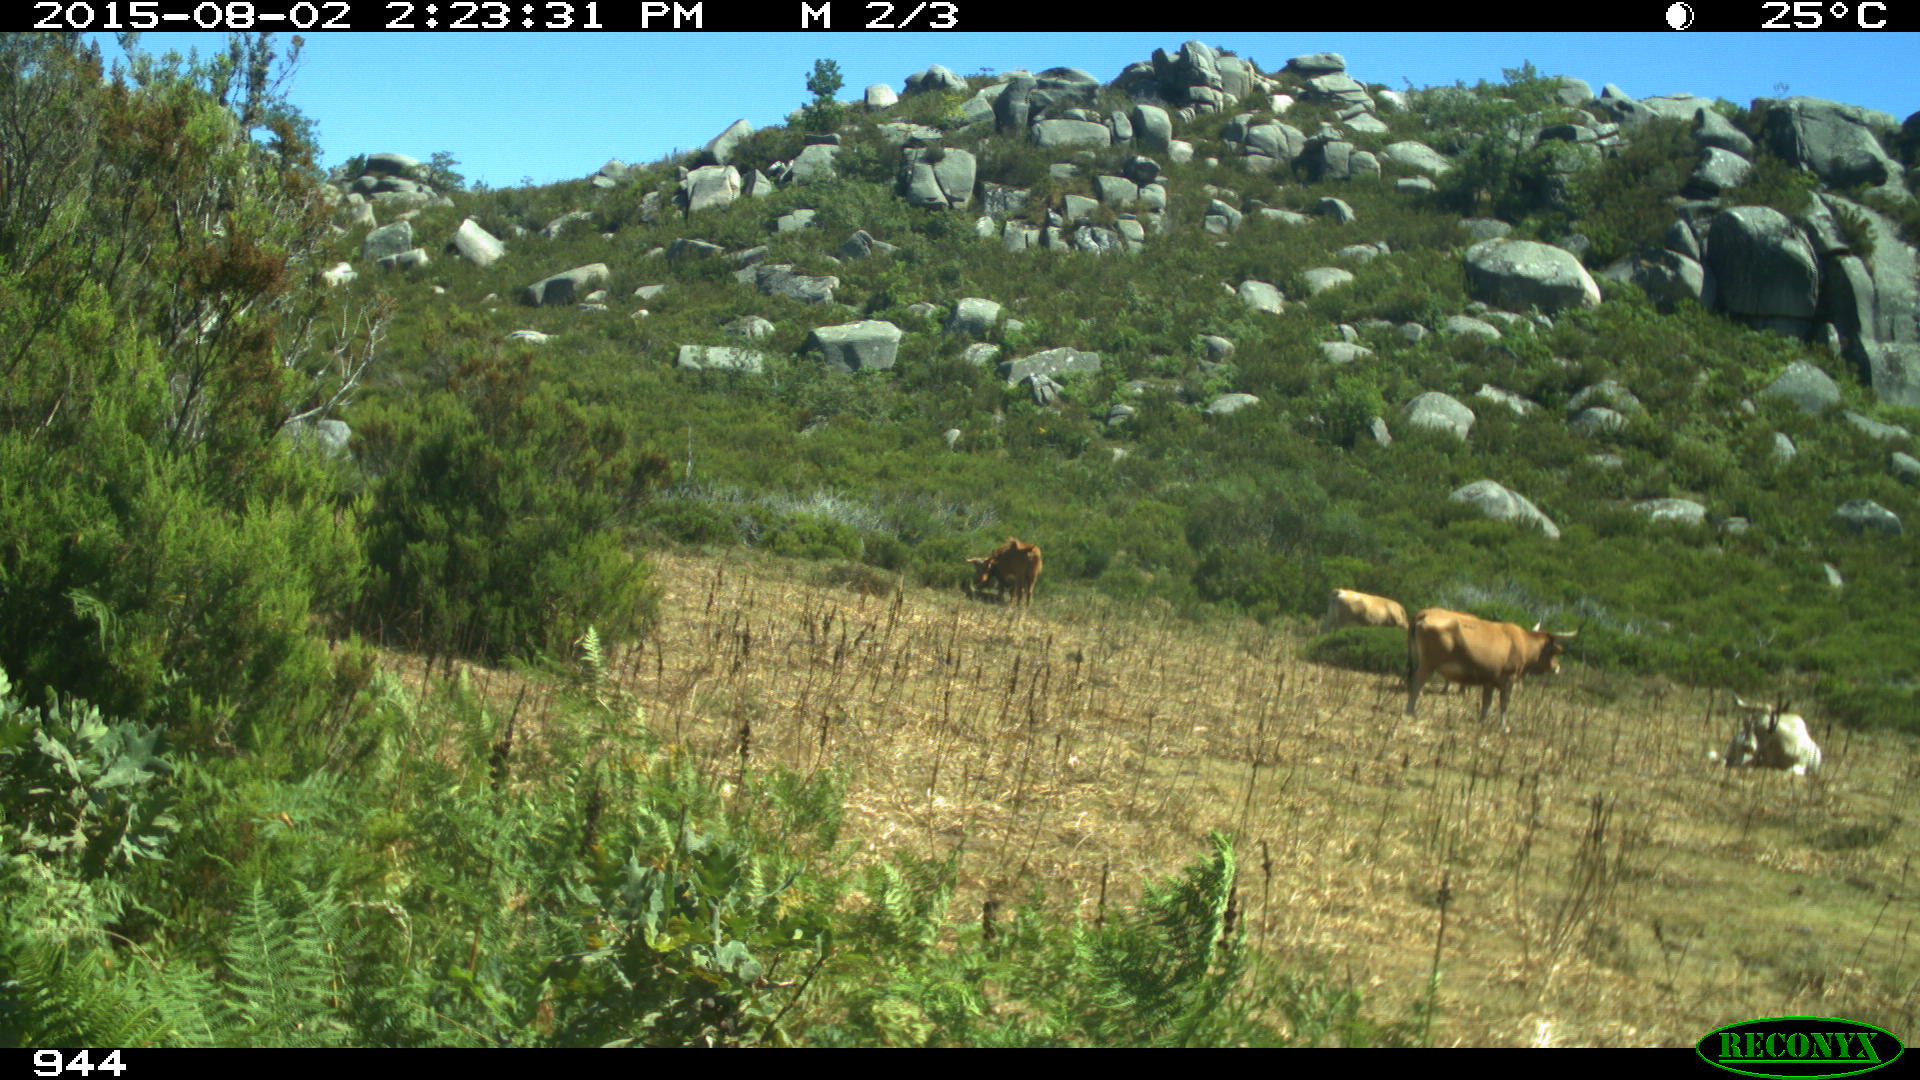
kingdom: Animalia
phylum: Chordata
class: Mammalia
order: Artiodactyla
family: Bovidae
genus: Bos
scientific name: Bos taurus
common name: Domesticated cattle
